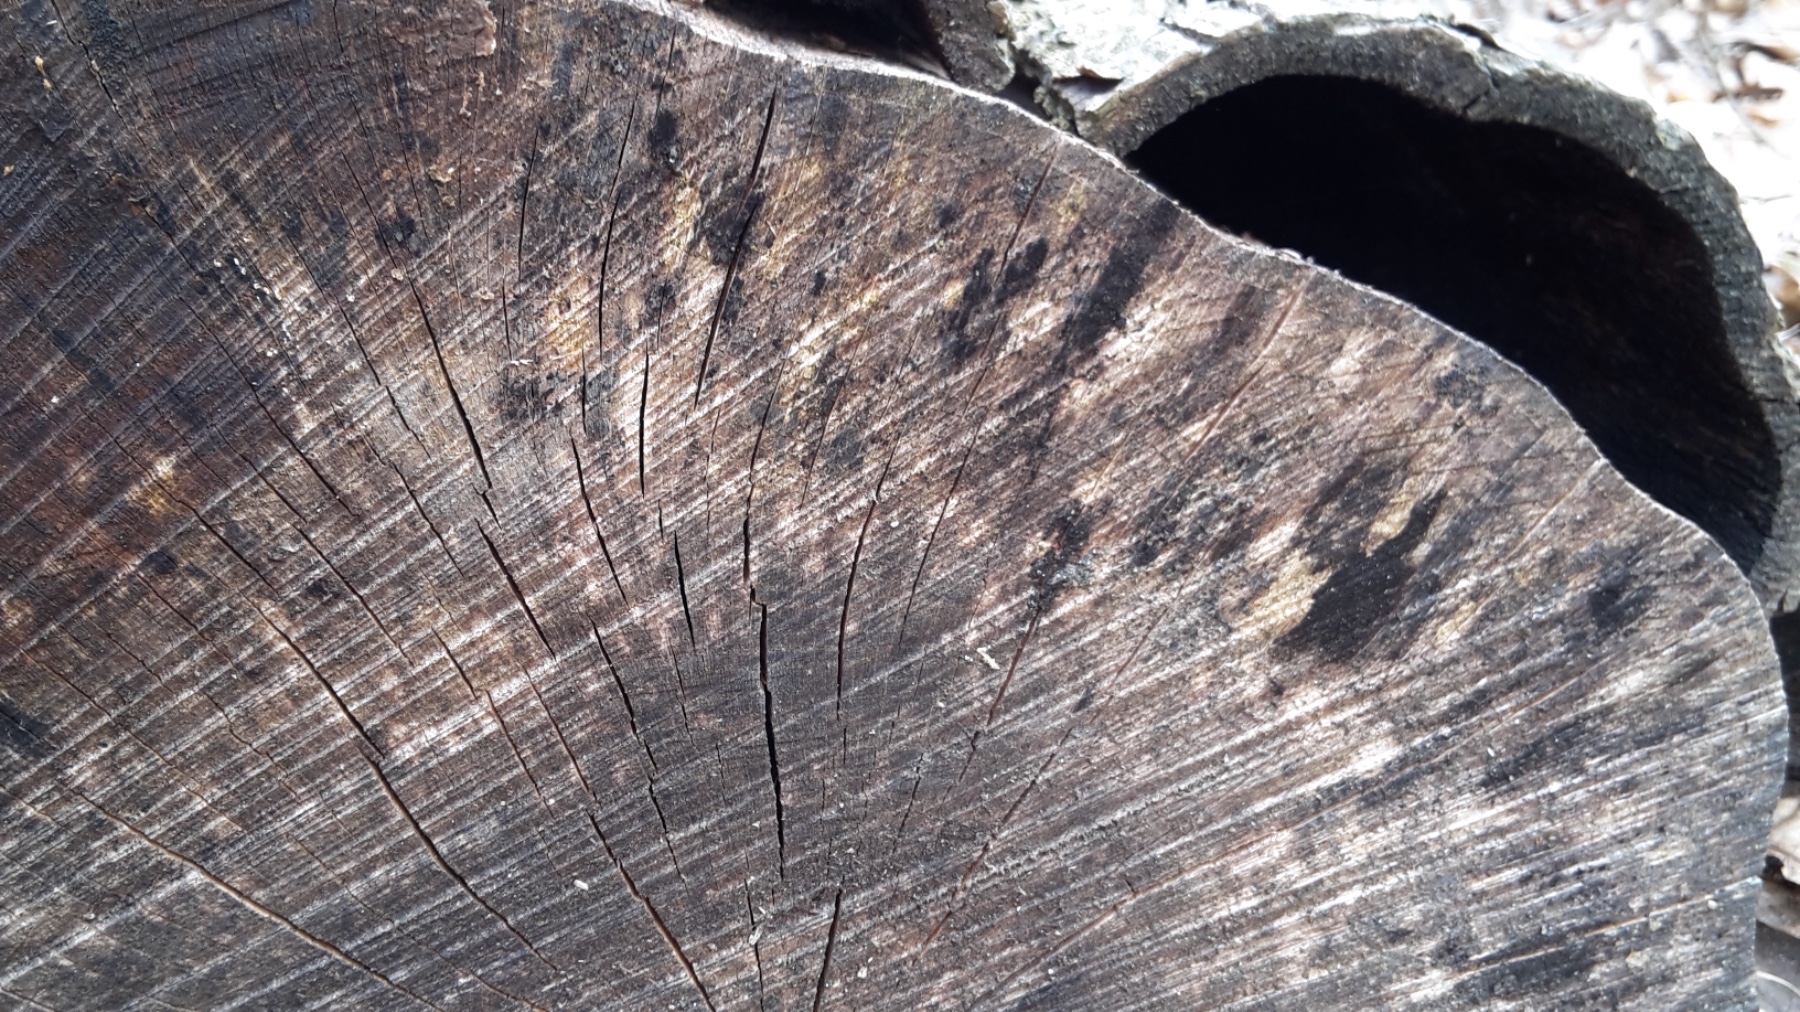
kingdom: Fungi
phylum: Ascomycota
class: Leotiomycetes
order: Helotiales
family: Helotiaceae
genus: Bispora
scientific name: Bispora pallescens
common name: måtte-snitskive
